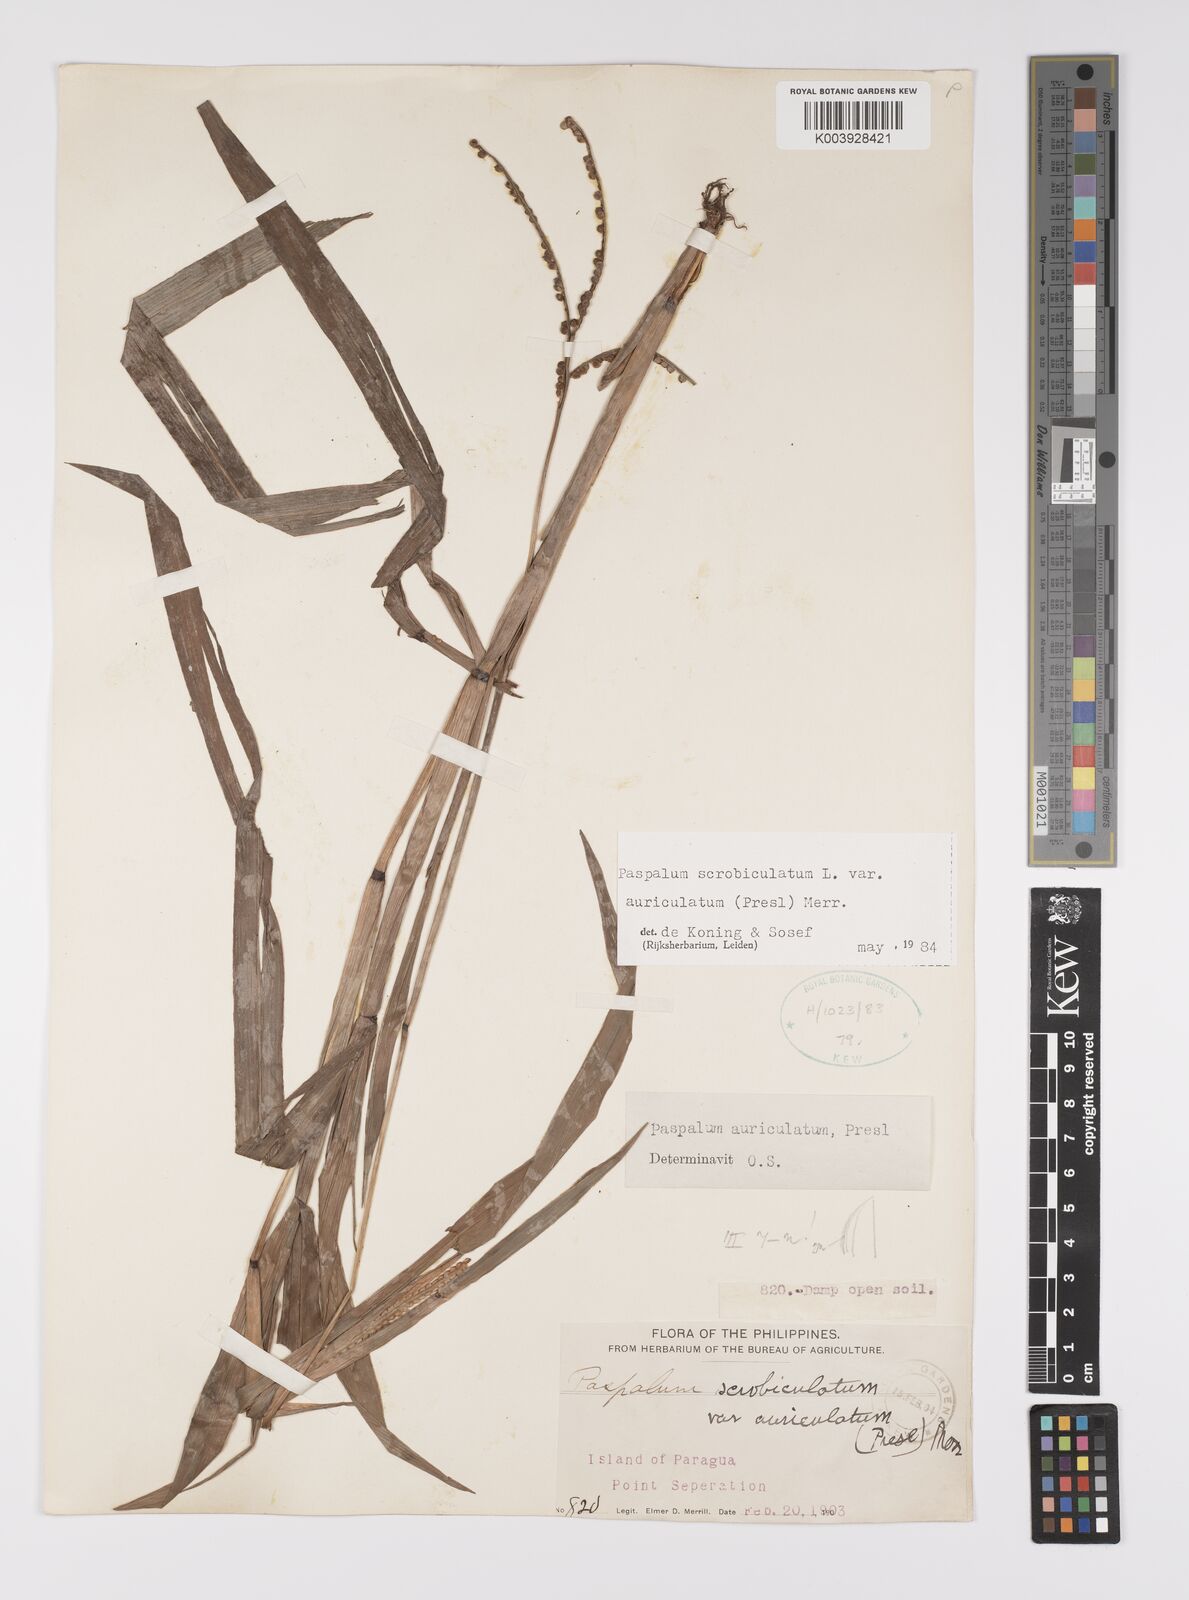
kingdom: Plantae
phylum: Tracheophyta
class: Liliopsida
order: Poales
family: Poaceae
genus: Paspalum
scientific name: Paspalum scrobiculatum
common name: Kodo millet
